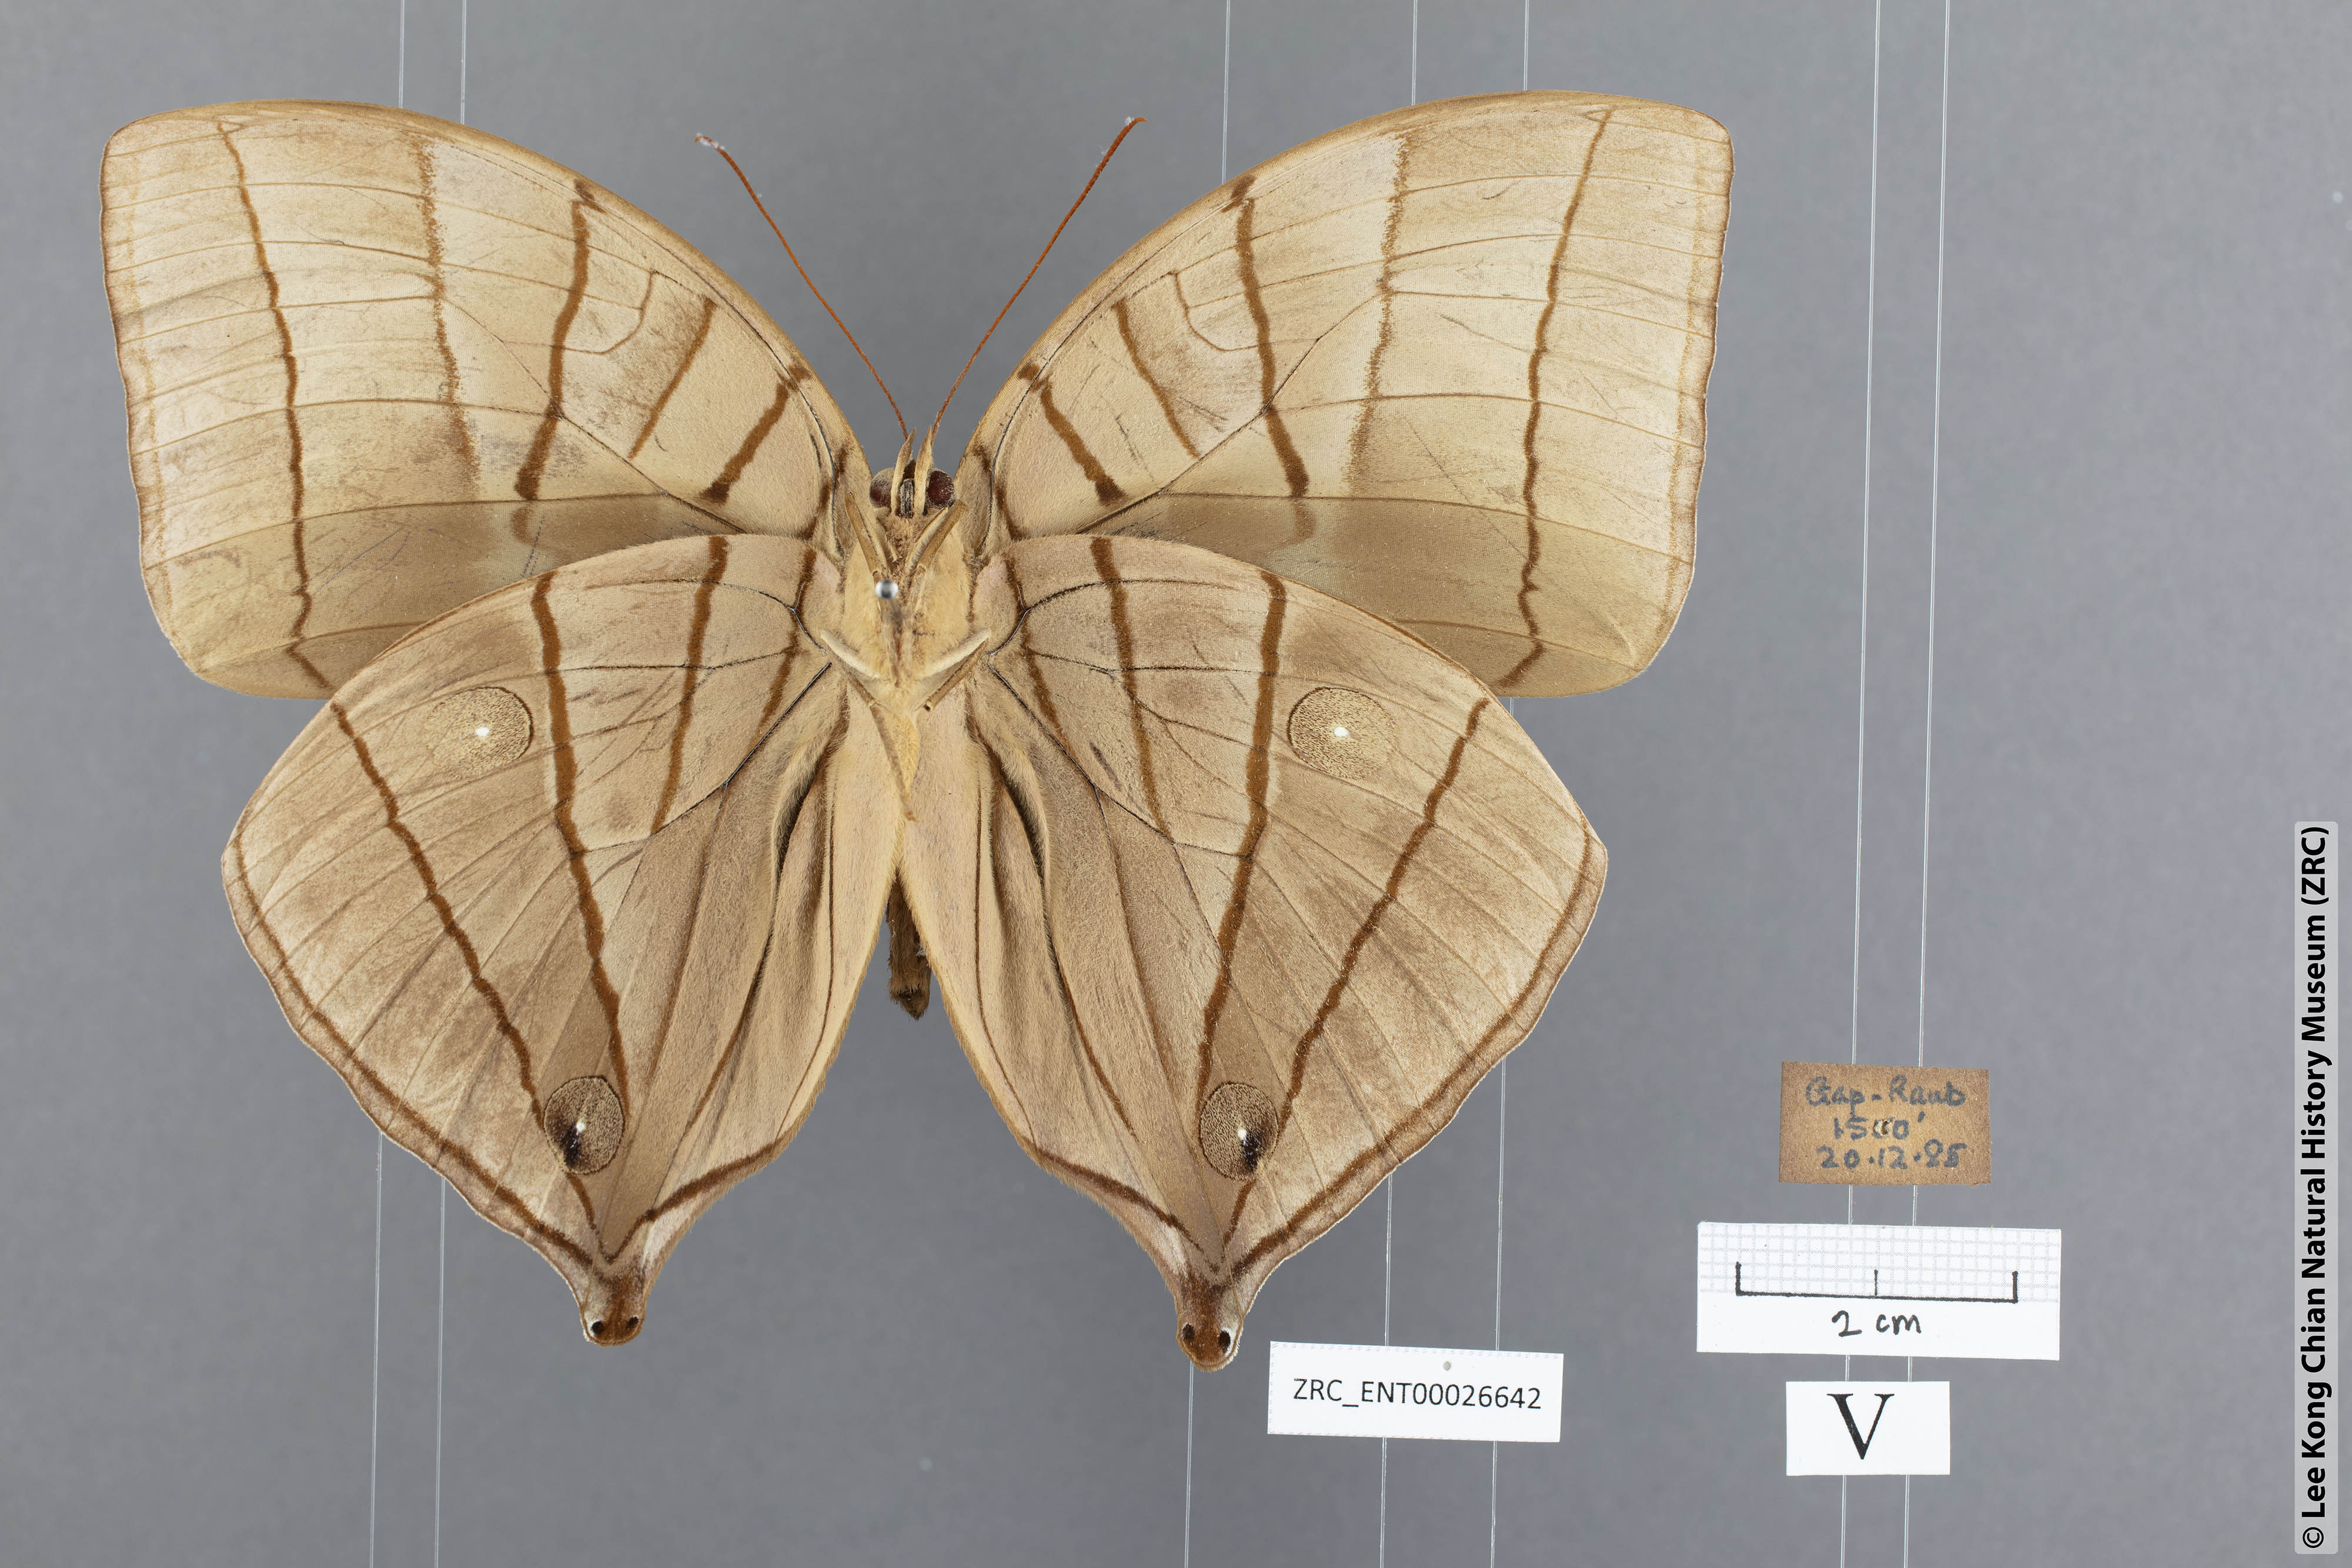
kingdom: Animalia
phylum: Arthropoda
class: Insecta
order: Lepidoptera
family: Nymphalidae
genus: Amathuxidia
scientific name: Amathuxidia amythaon
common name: Koh-i-noor
